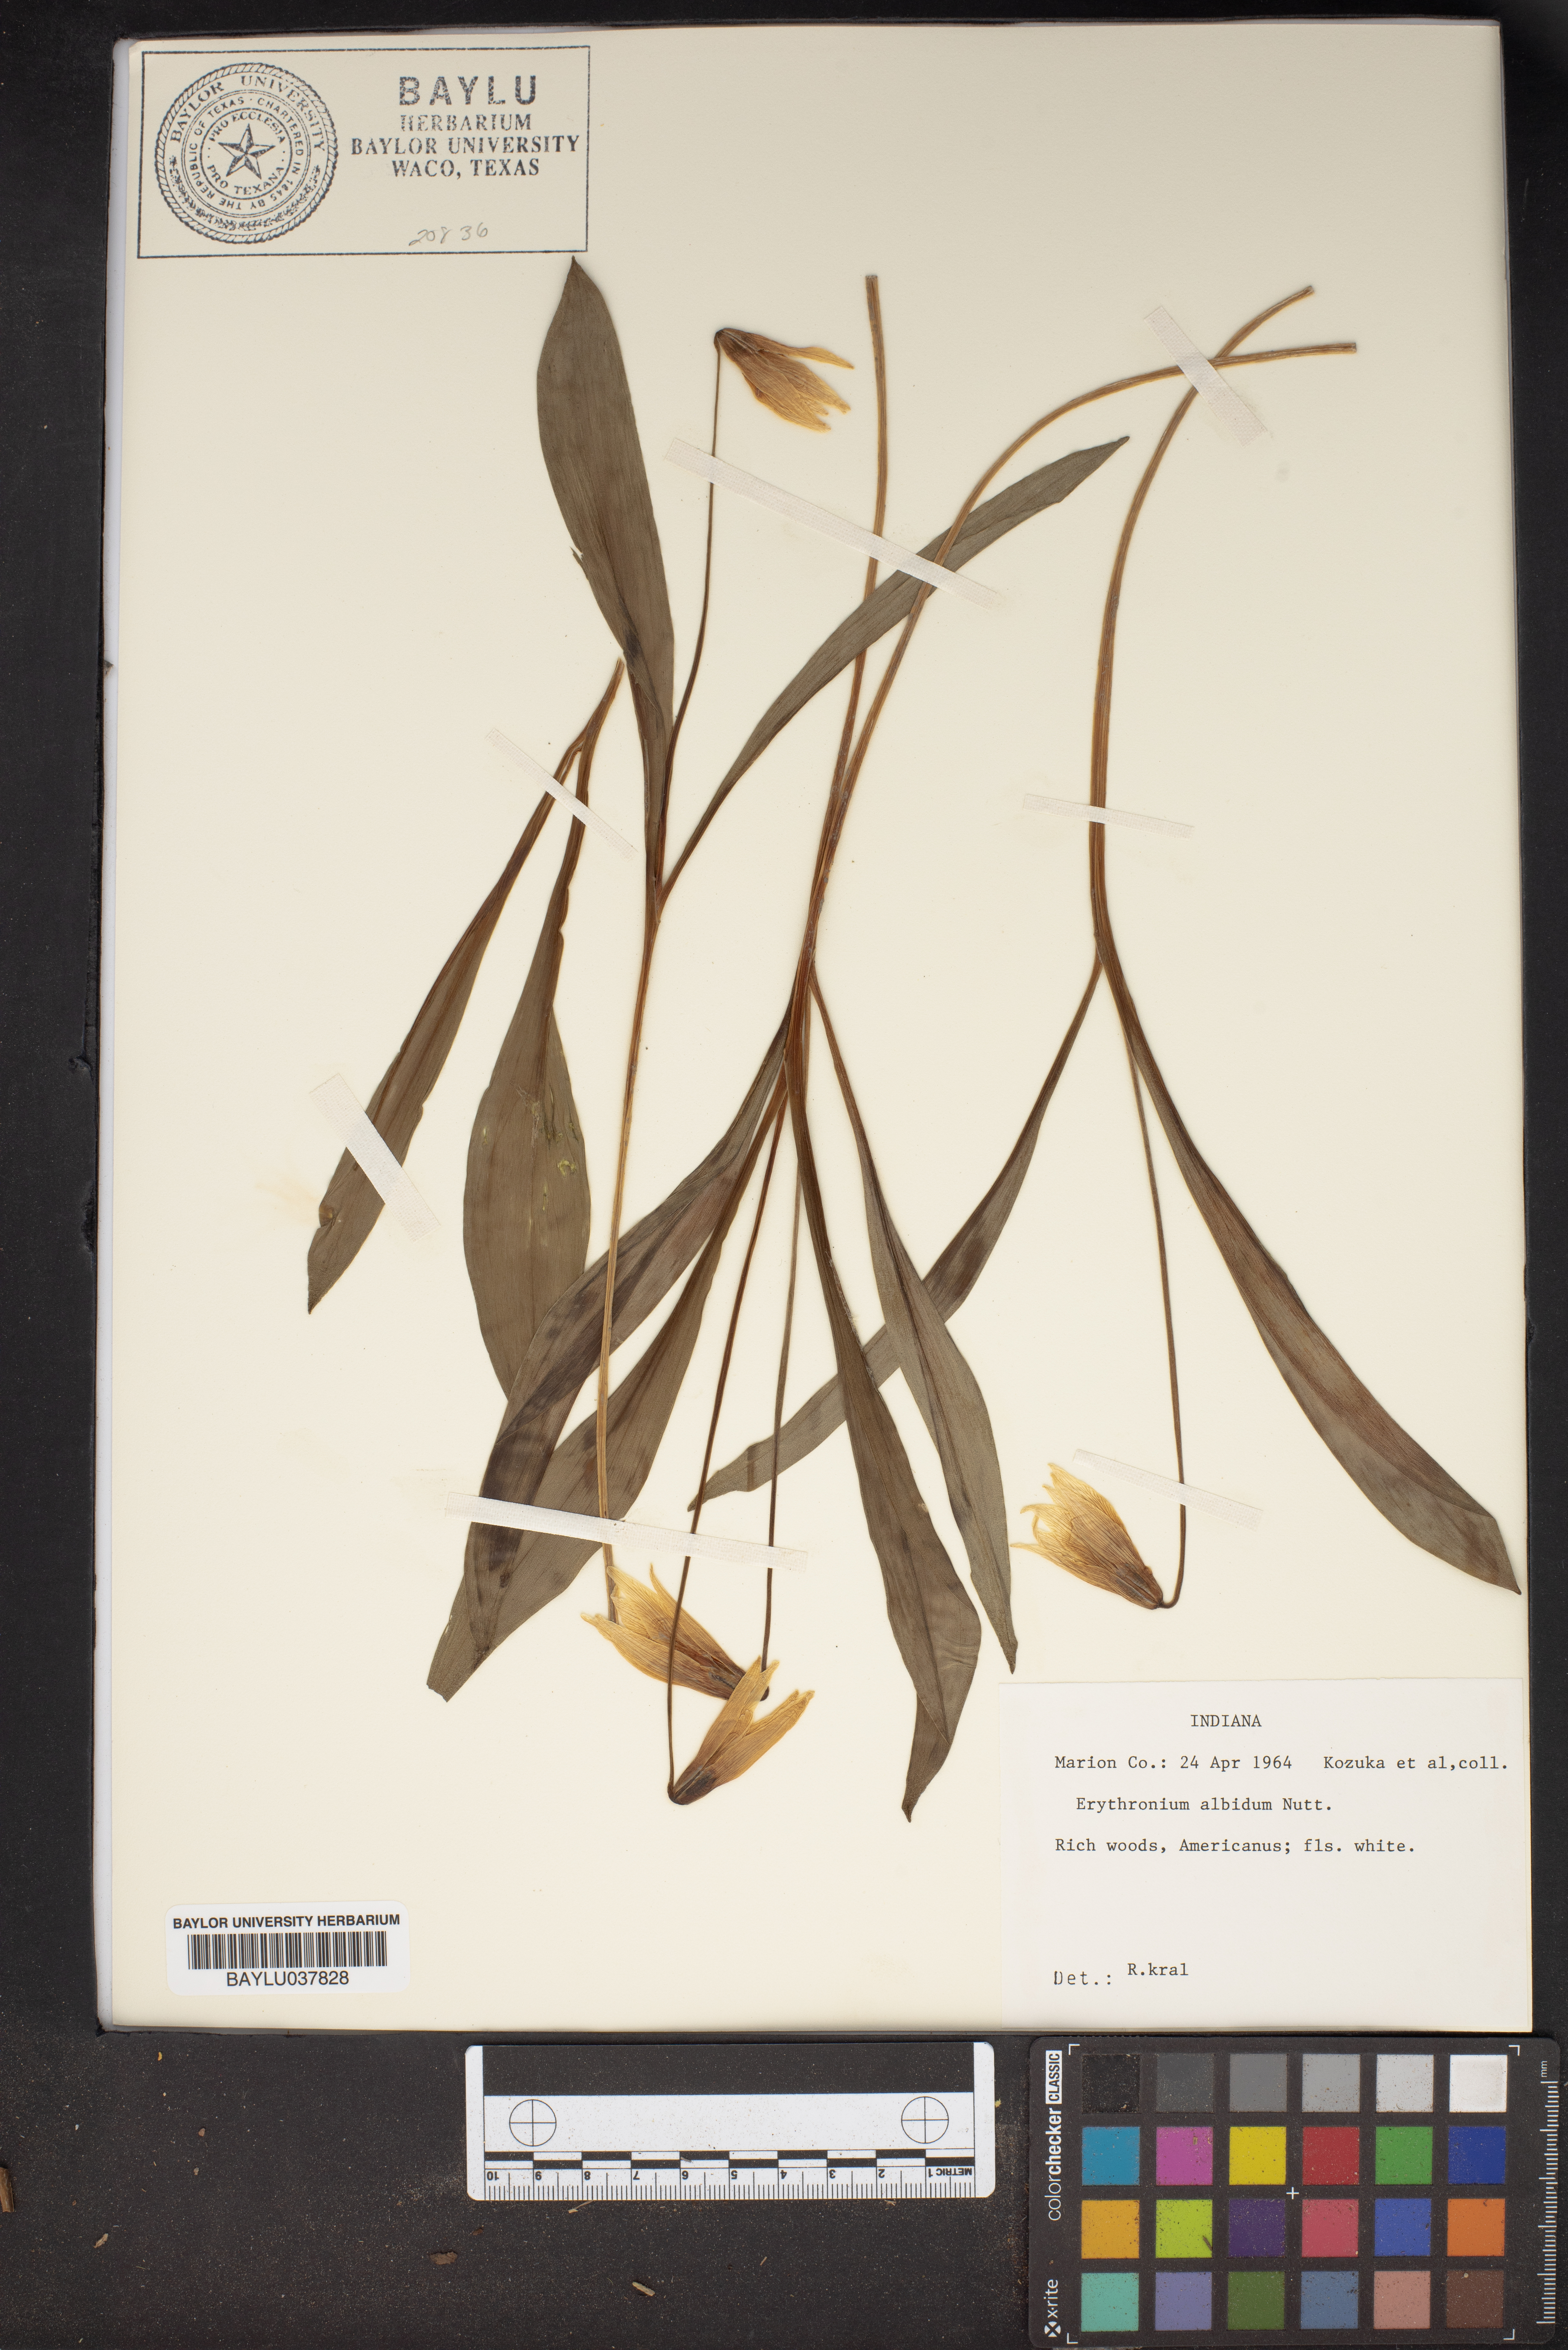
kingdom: Plantae
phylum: Tracheophyta
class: Liliopsida
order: Liliales
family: Liliaceae
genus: Erythronium
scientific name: Erythronium albidum
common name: White trout-lily
